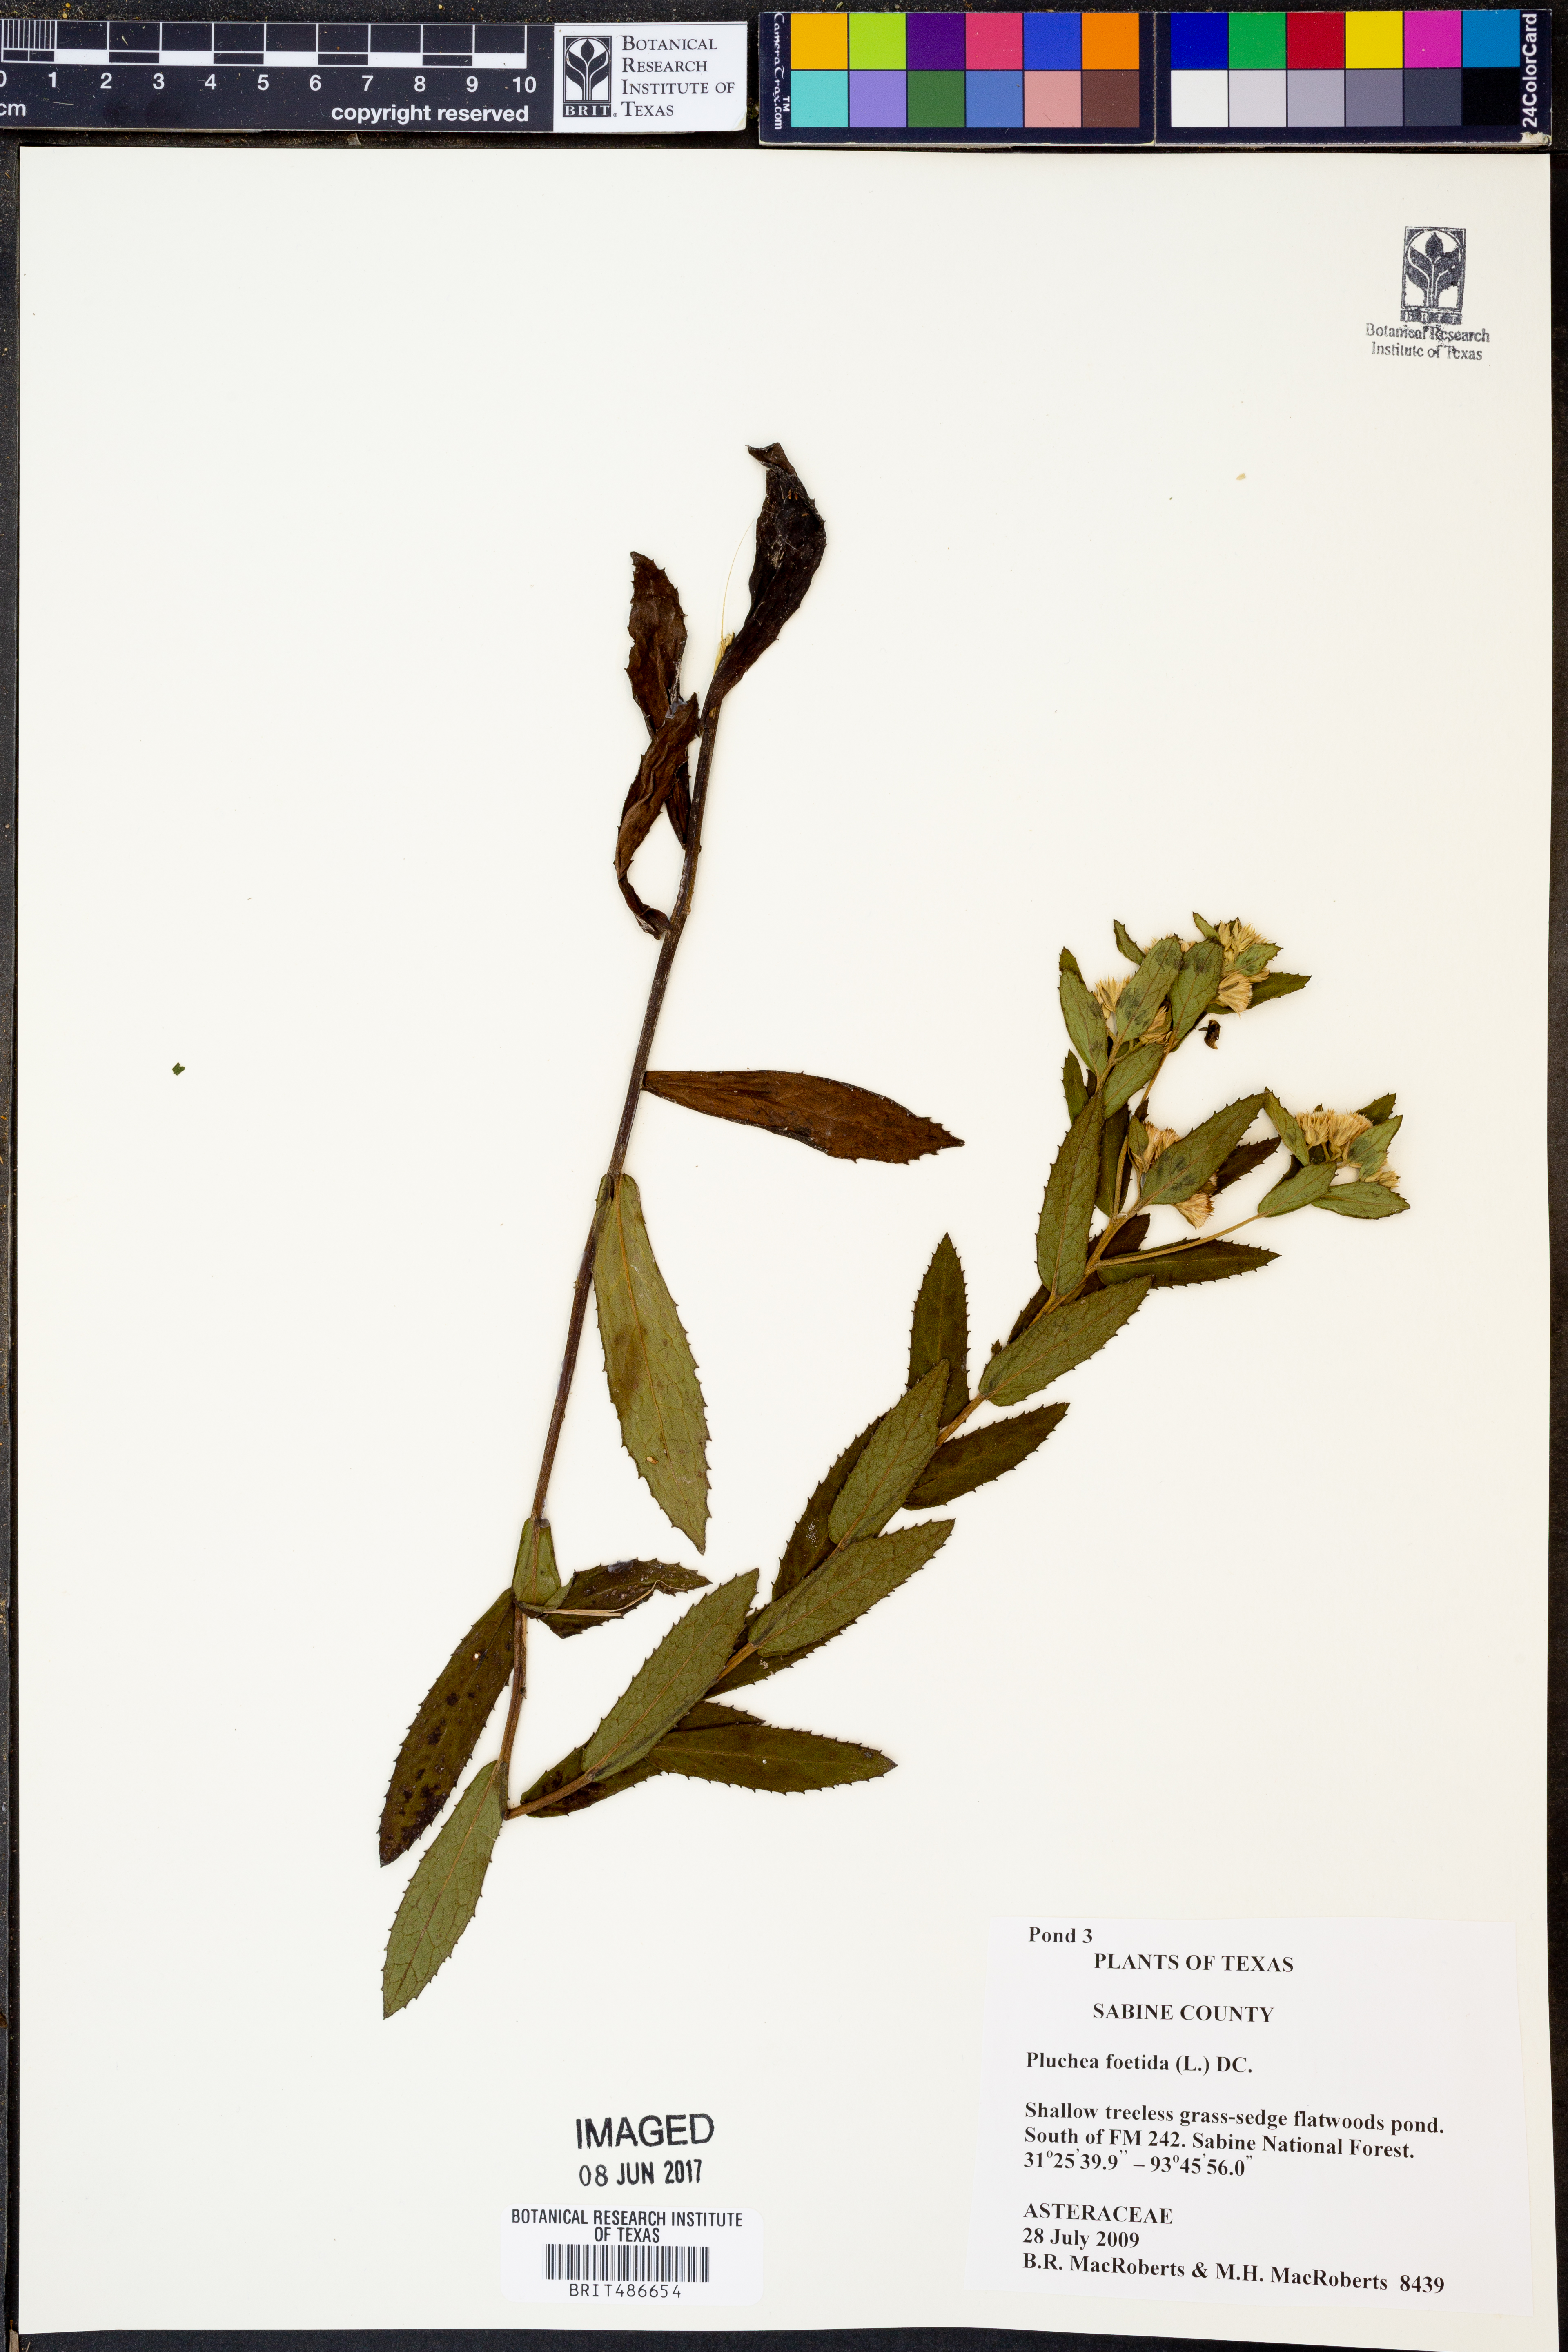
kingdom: Plantae
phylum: Tracheophyta
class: Magnoliopsida
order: Asterales
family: Asteraceae
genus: Pluchea
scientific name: Pluchea foetida
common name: Stinking camphorweed
